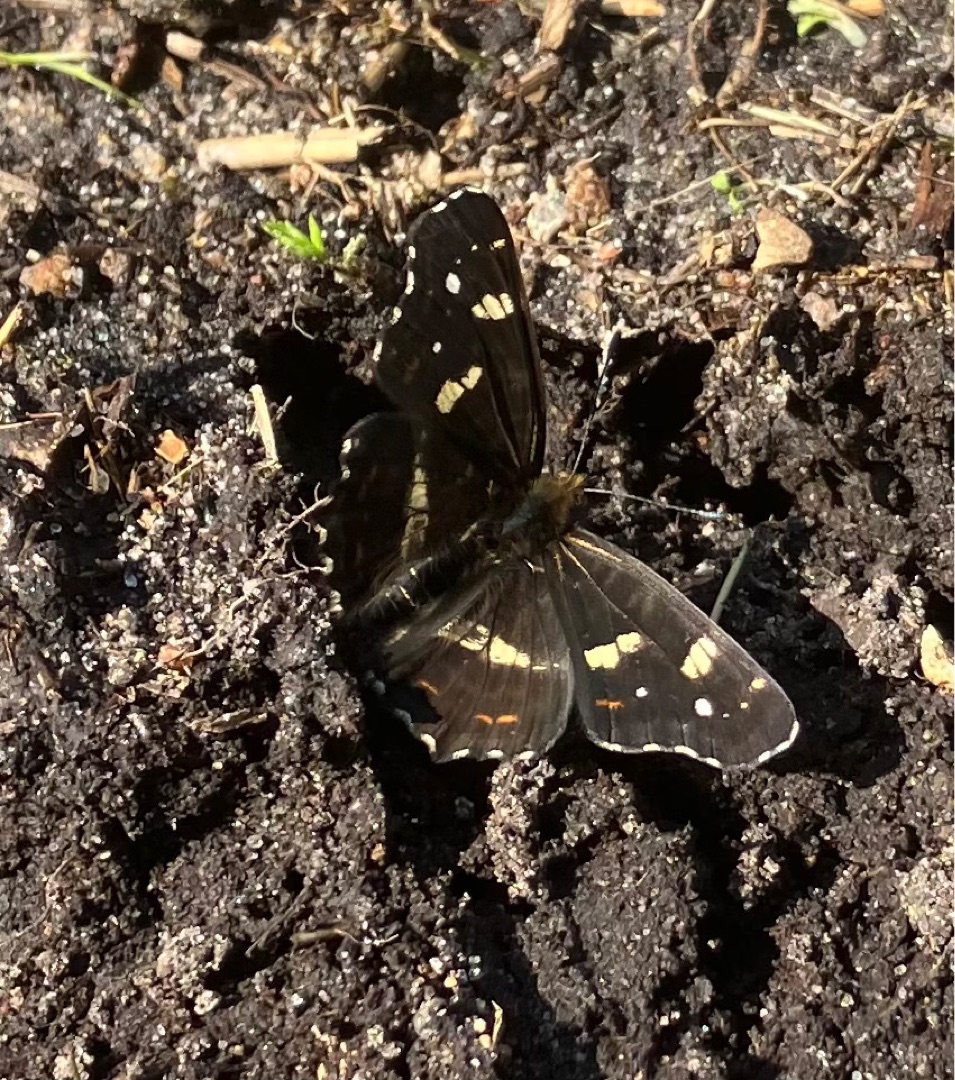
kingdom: Animalia
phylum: Arthropoda
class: Insecta
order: Lepidoptera
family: Nymphalidae
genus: Araschnia
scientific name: Araschnia levana
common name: Nældesommerfugl
